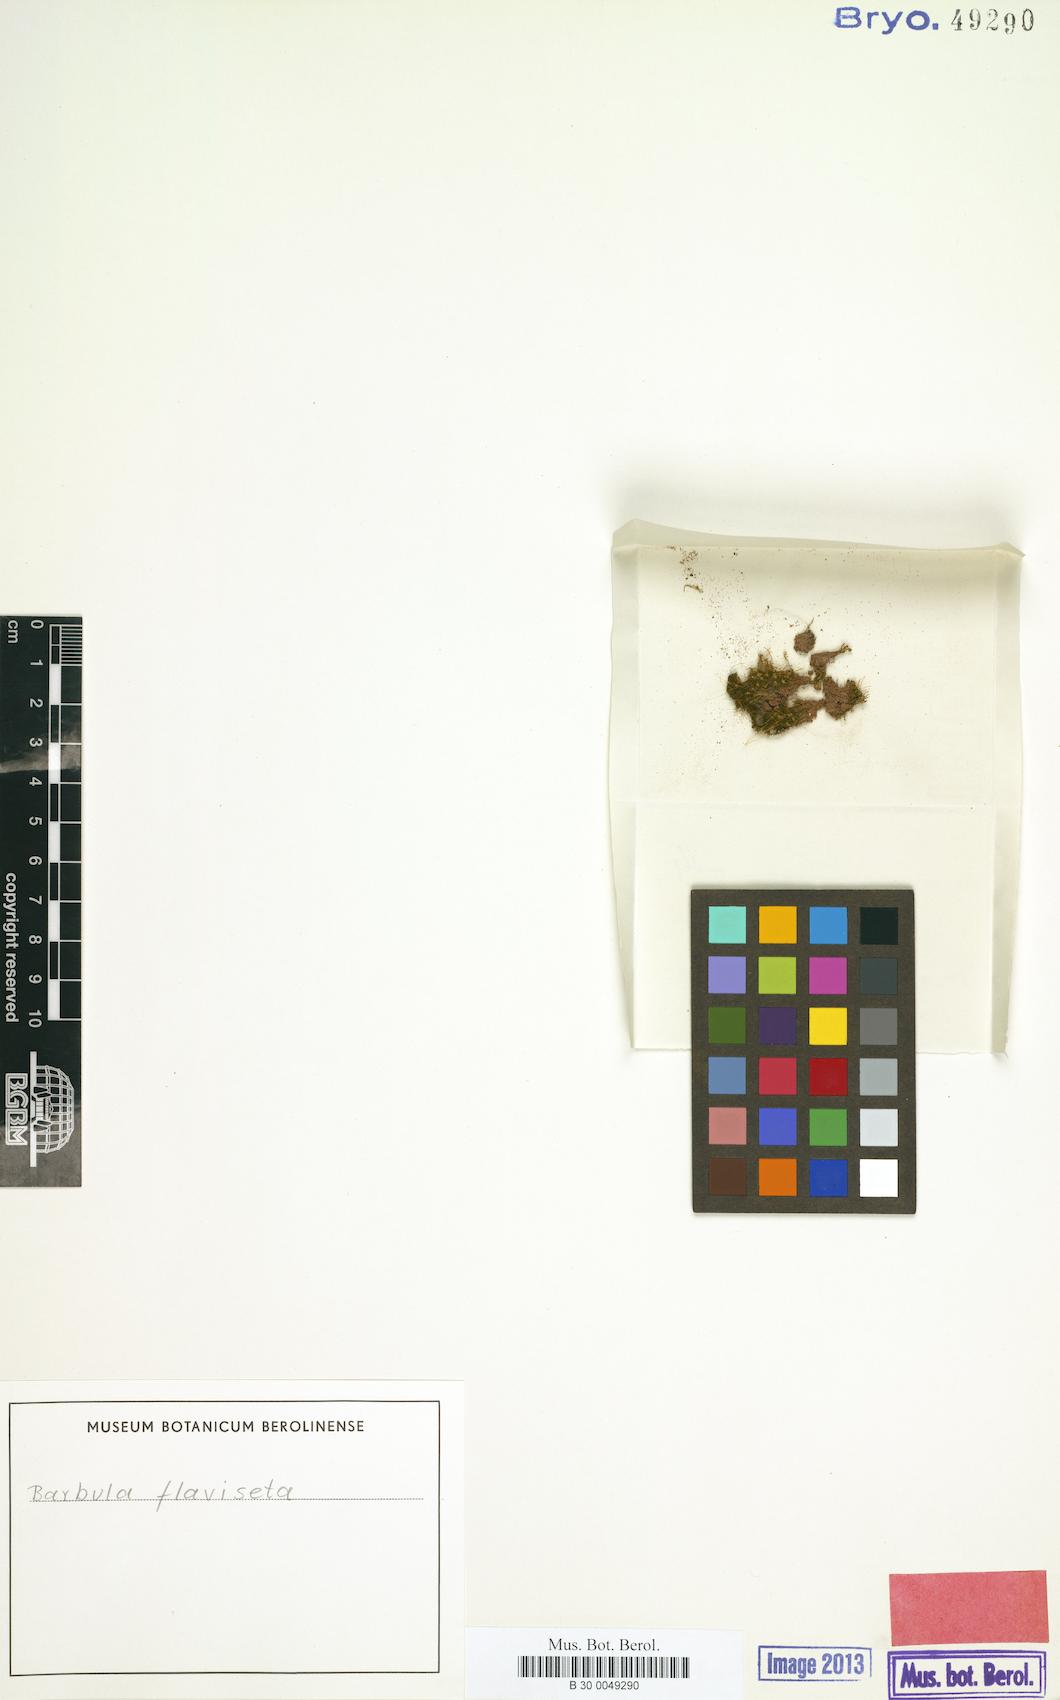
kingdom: Plantae
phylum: Bryophyta
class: Bryopsida
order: Pottiales
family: Pottiaceae
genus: Trichostomopsis
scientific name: Trichostomopsis umbrosa
